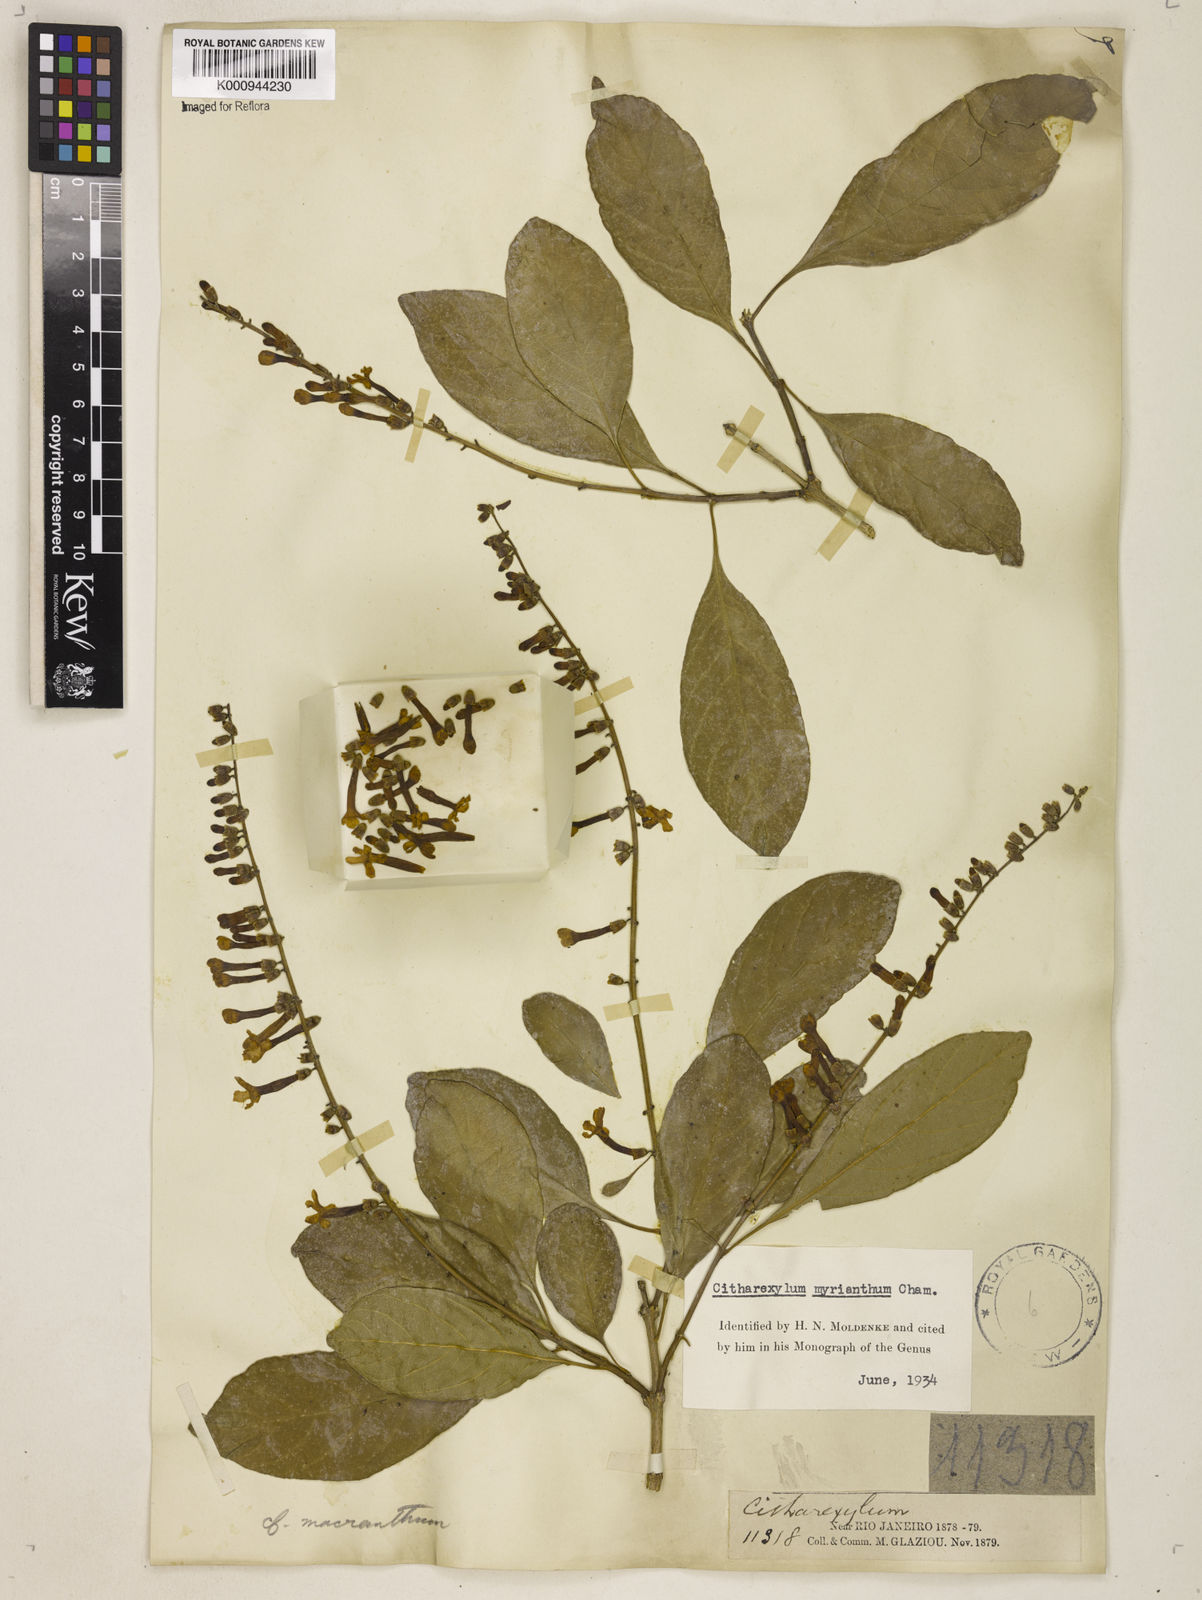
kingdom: Plantae
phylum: Tracheophyta
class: Magnoliopsida
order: Lamiales
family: Verbenaceae
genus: Citharexylum
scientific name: Citharexylum myrianthum
